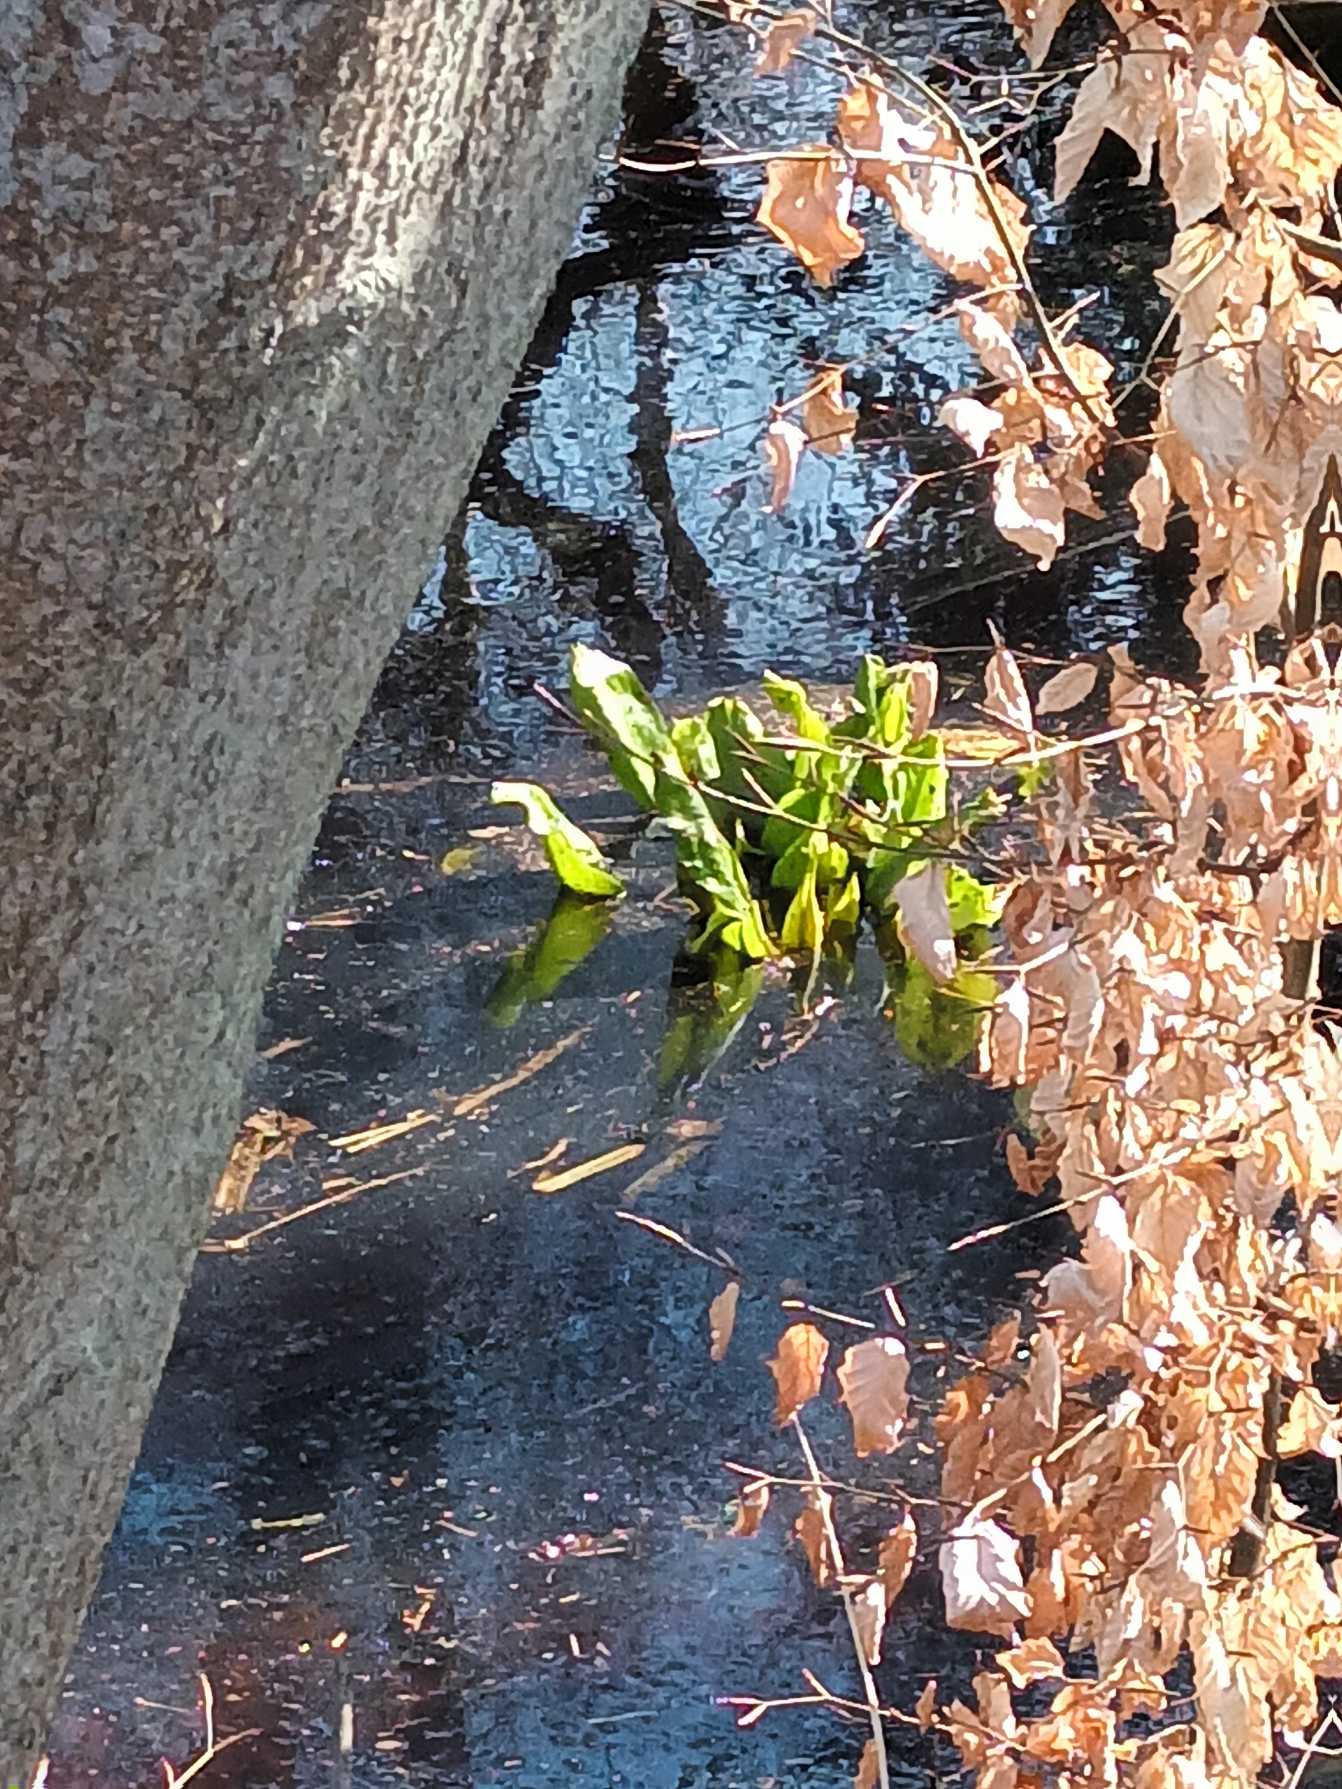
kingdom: Plantae
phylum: Tracheophyta
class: Liliopsida
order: Alismatales
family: Araceae
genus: Lysichiton
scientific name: Lysichiton americanus
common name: Gul kæmpekalla
